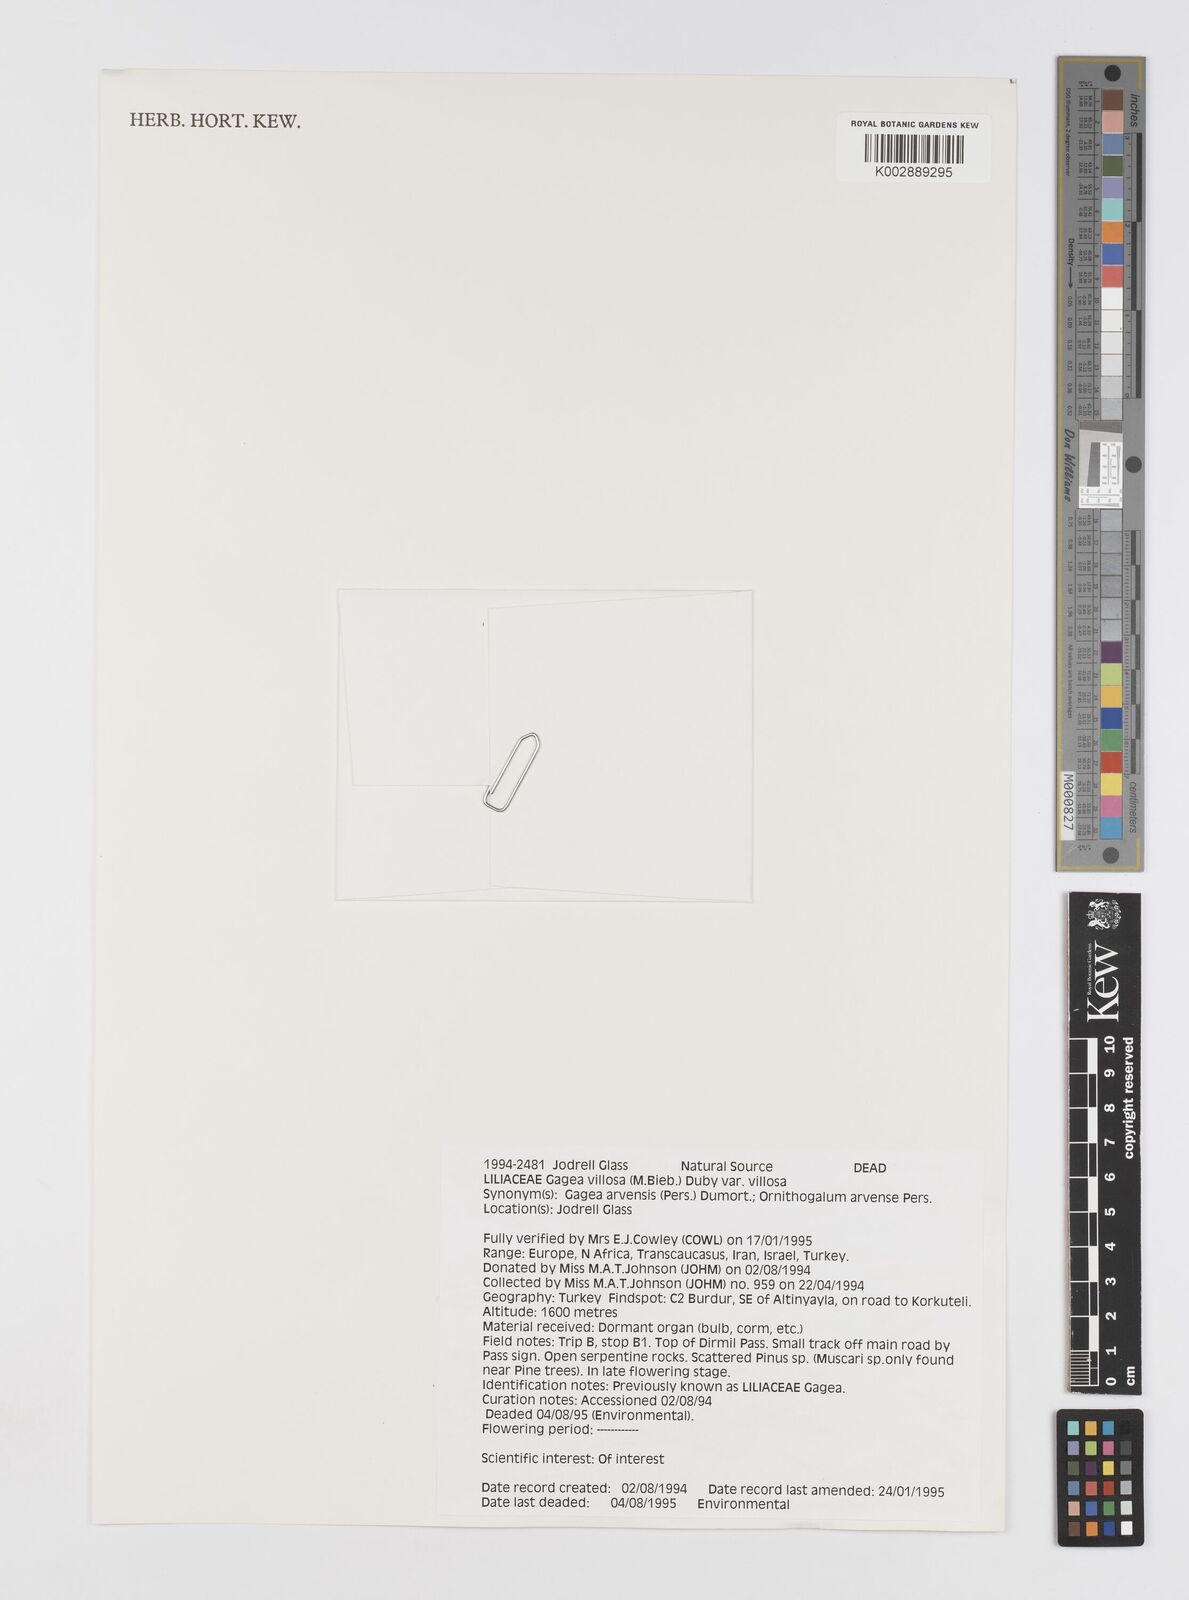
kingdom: Plantae
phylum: Tracheophyta
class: Liliopsida
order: Liliales
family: Liliaceae
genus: Gagea
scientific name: Gagea
